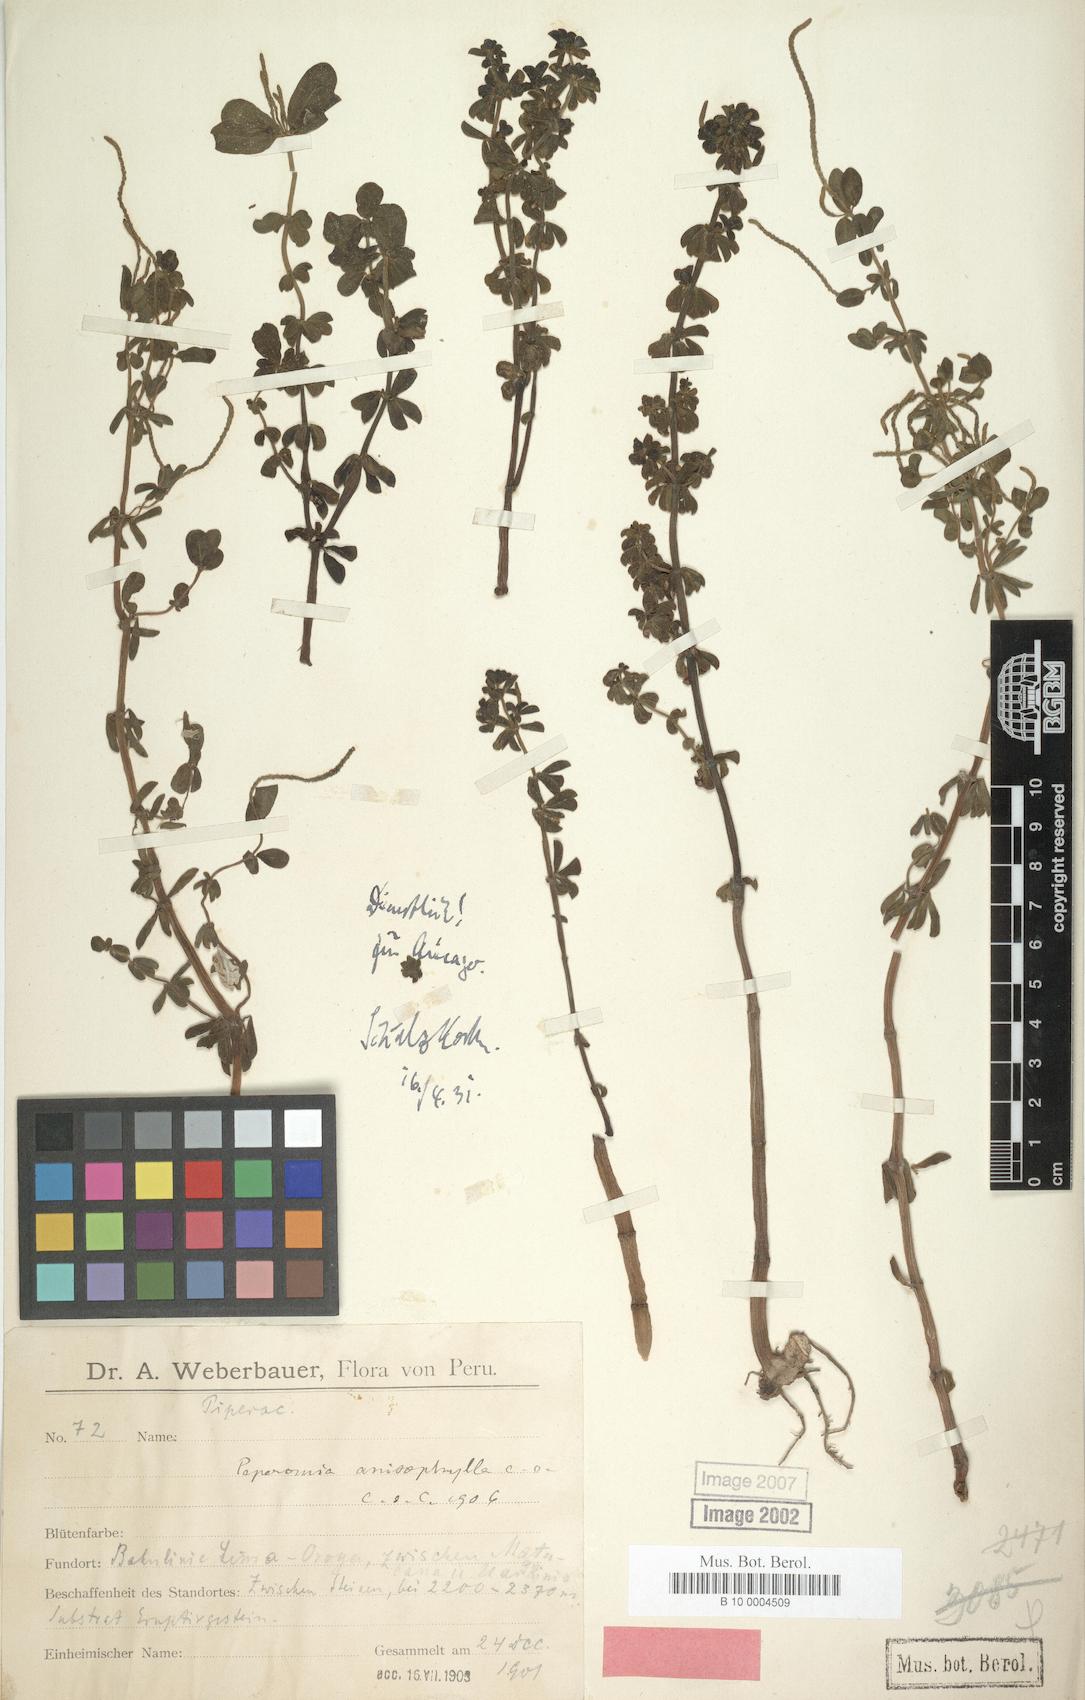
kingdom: Plantae
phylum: Tracheophyta
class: Magnoliopsida
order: Piperales
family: Piperaceae
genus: Peperomia
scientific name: Peperomia galioides
